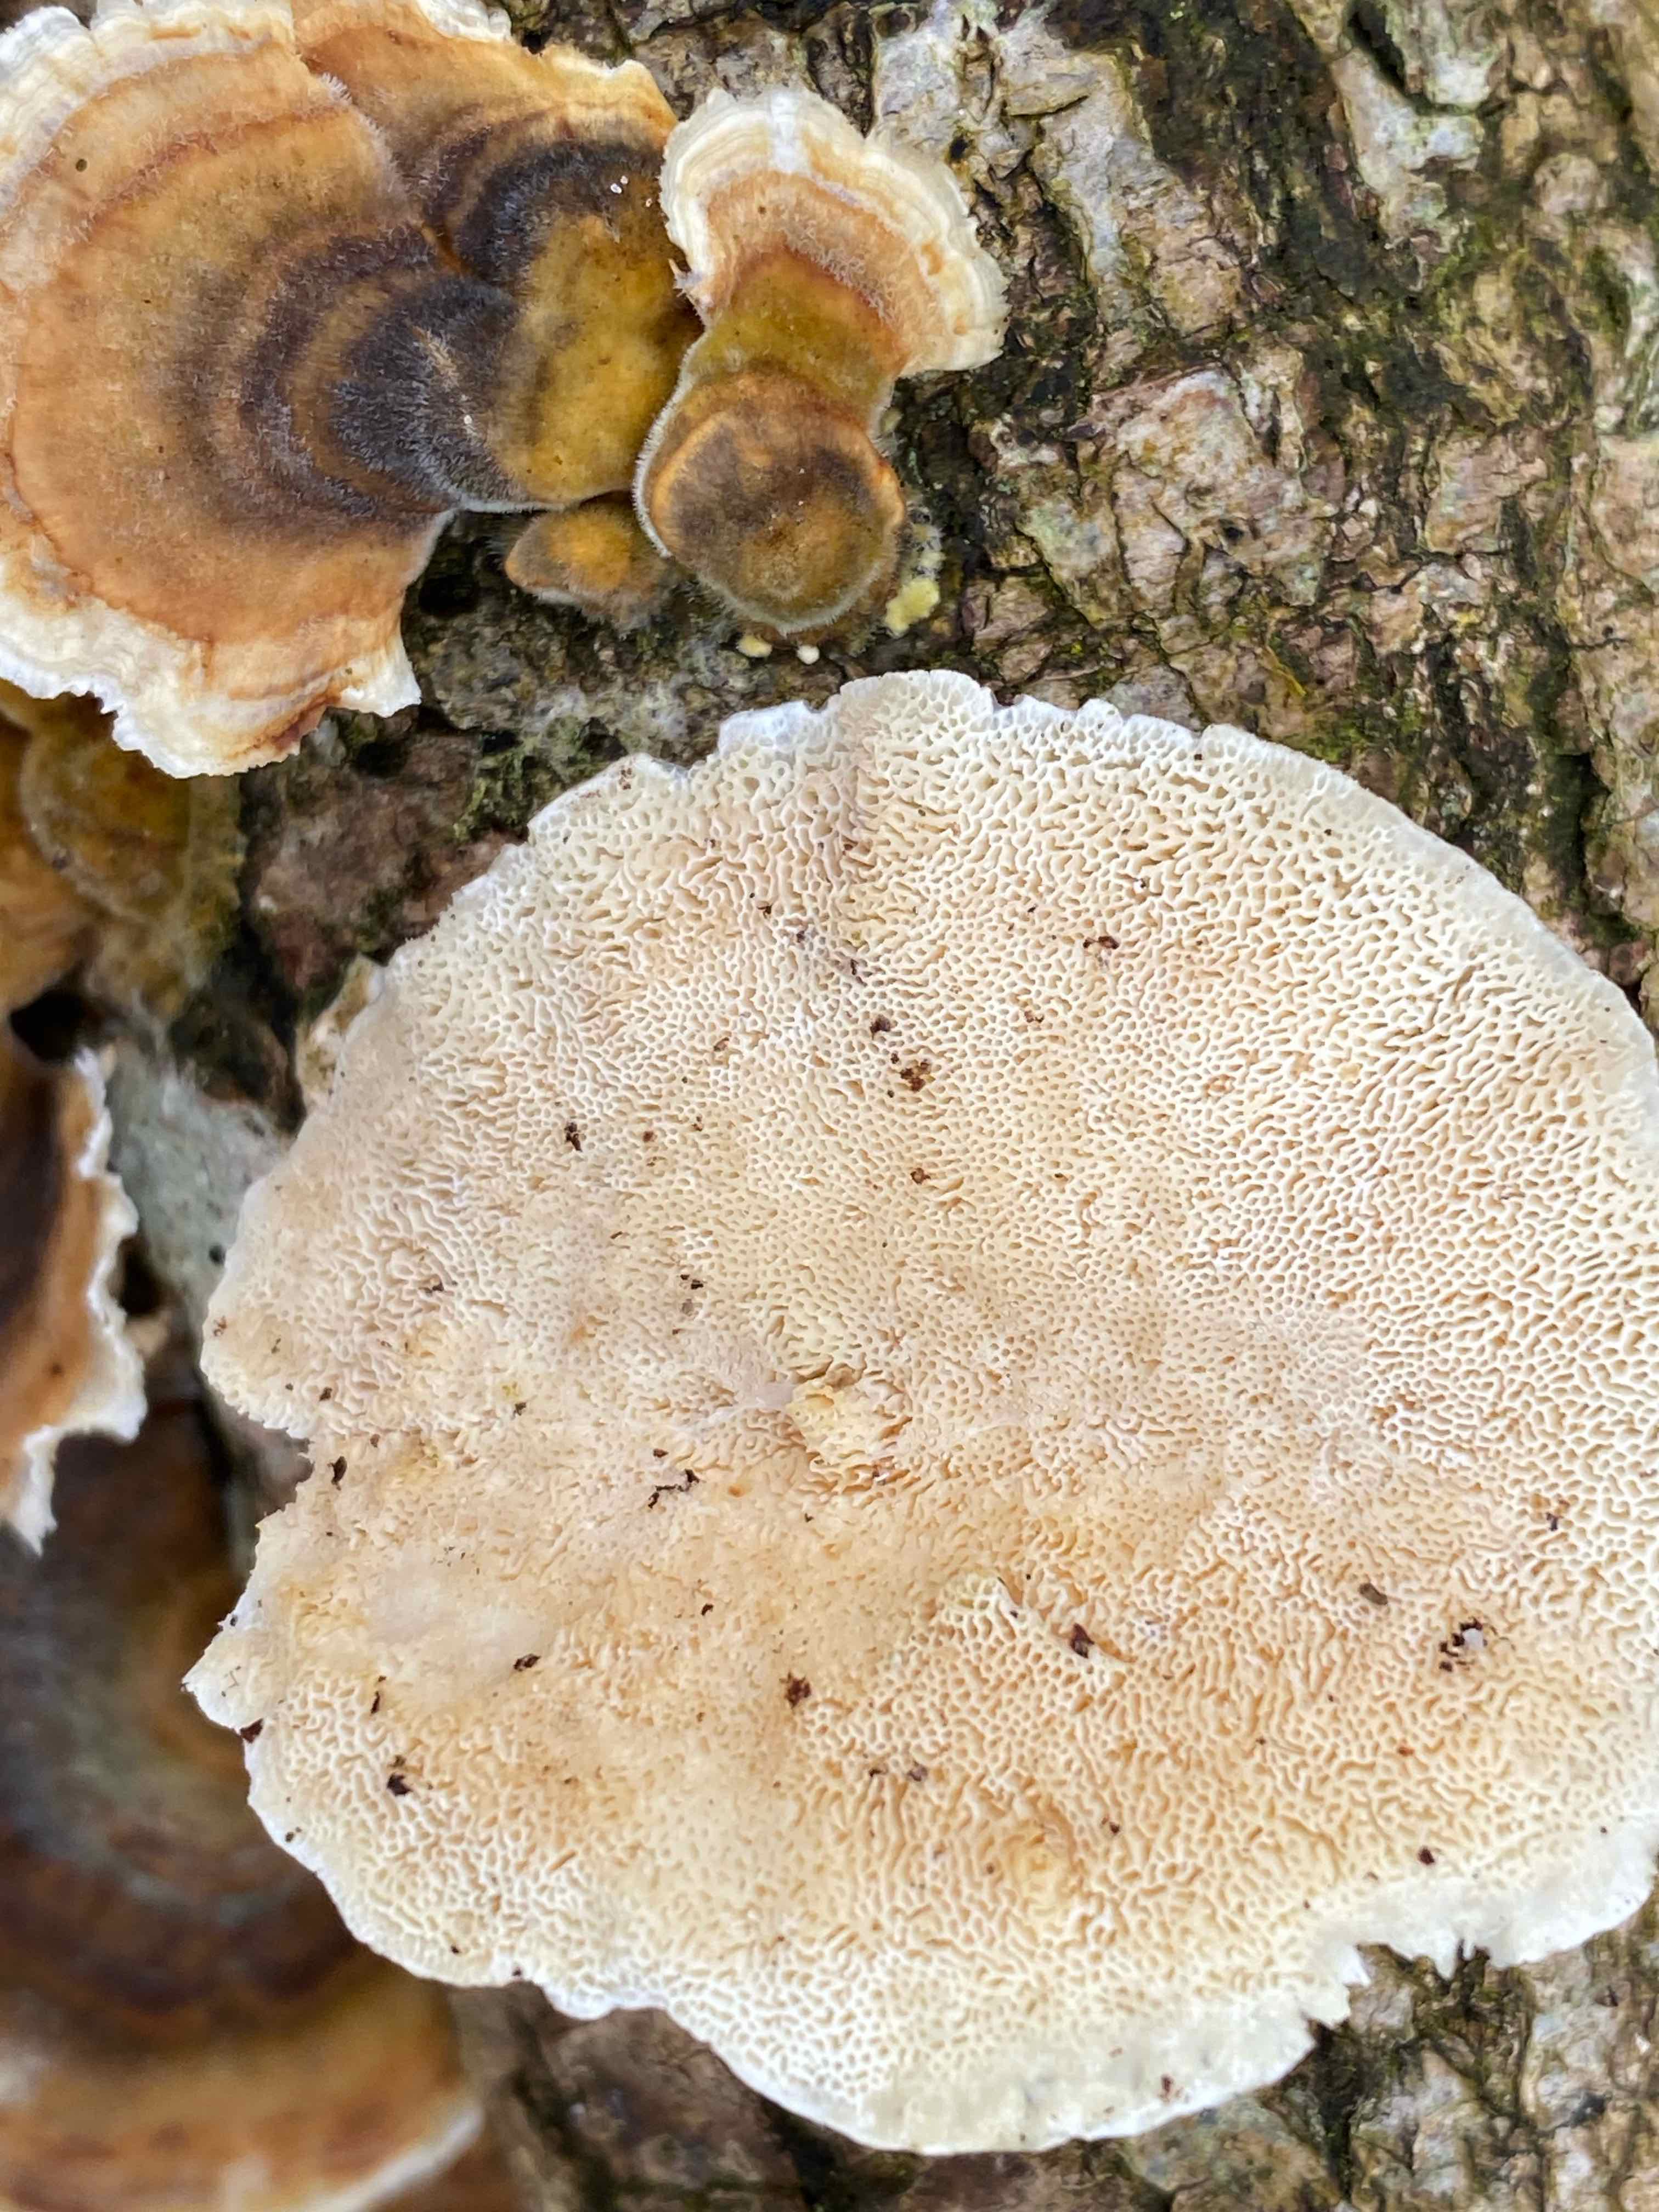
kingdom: Fungi
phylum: Basidiomycota
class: Agaricomycetes
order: Polyporales
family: Polyporaceae
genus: Trametes
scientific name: Trametes versicolor
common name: broget læderporesvamp
